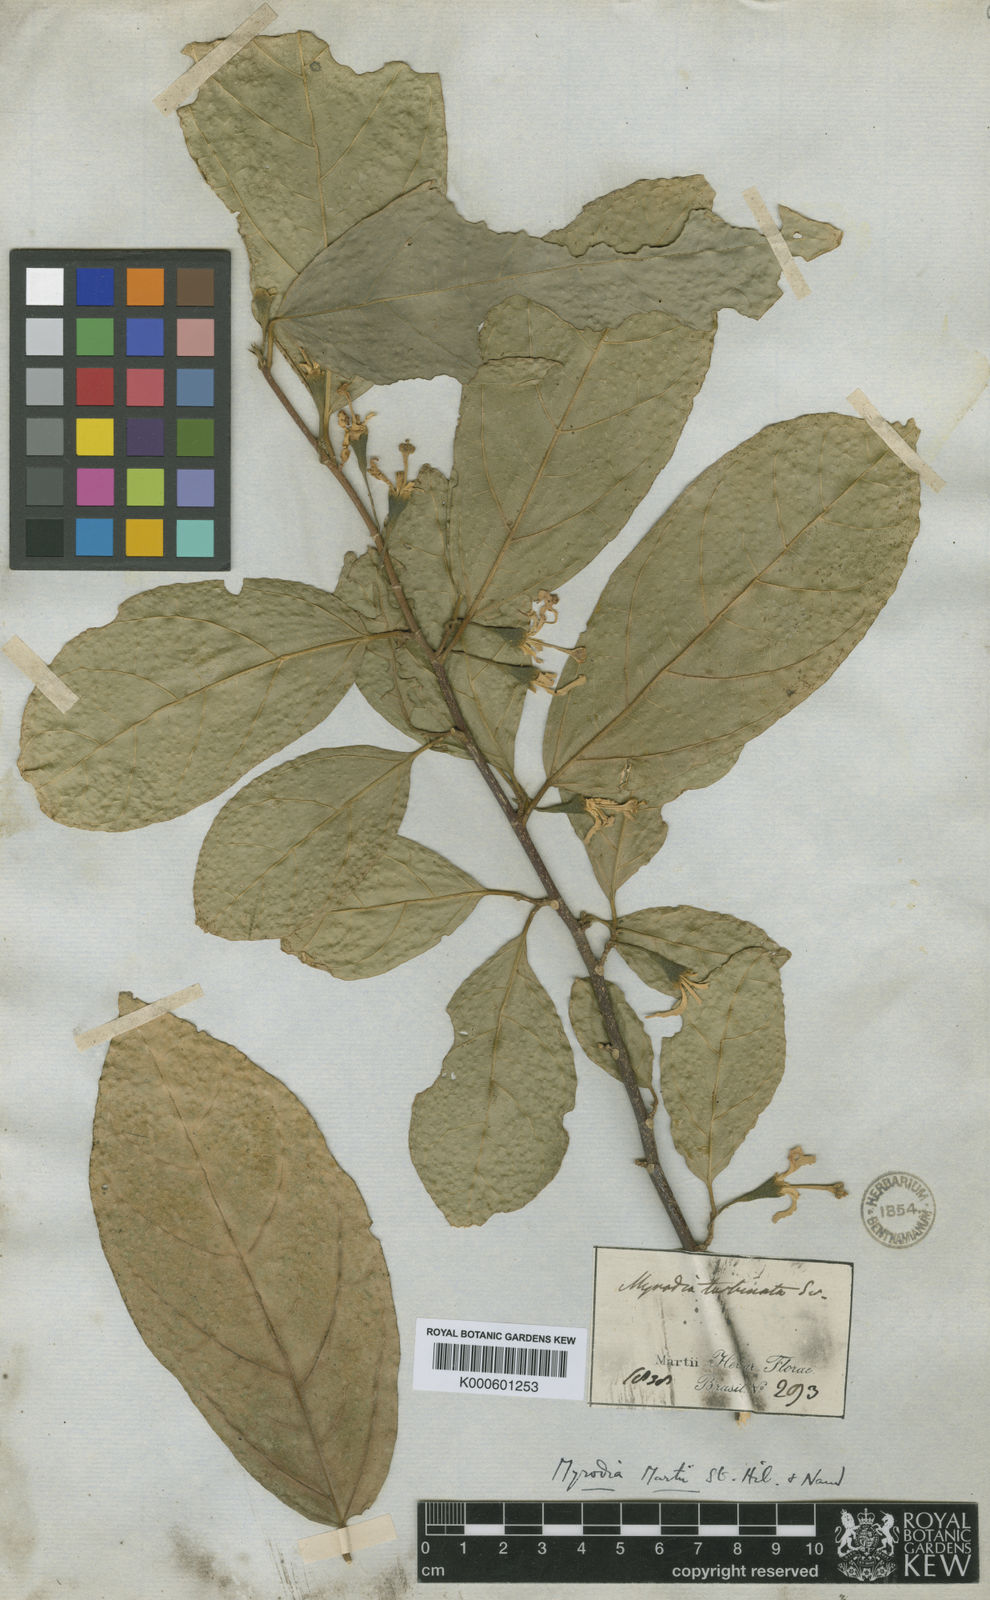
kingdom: Plantae
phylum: Tracheophyta
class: Magnoliopsida
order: Malvales
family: Malvaceae
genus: Quararibea
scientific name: Quararibea turbinata
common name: Swizzlestick-tree
